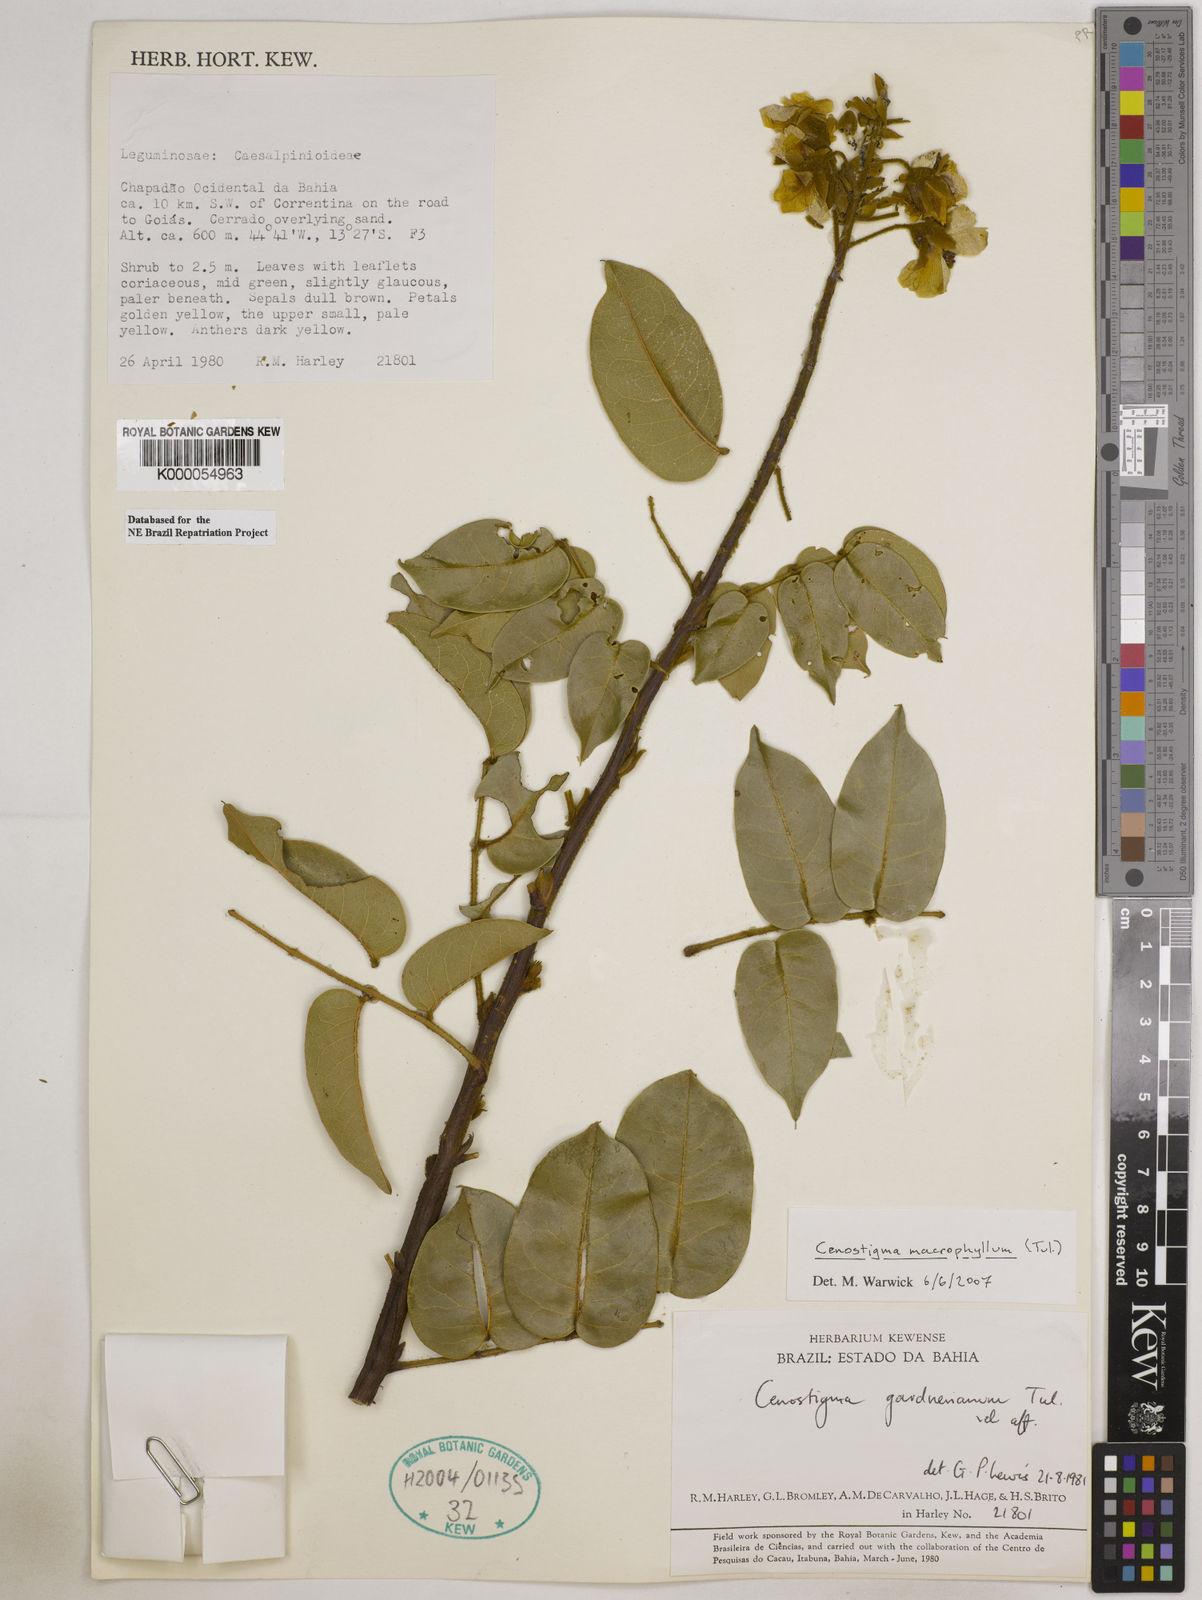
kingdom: Plantae
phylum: Tracheophyta
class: Magnoliopsida
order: Fabales
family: Fabaceae
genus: Cenostigma
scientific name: Cenostigma macrophyllum
